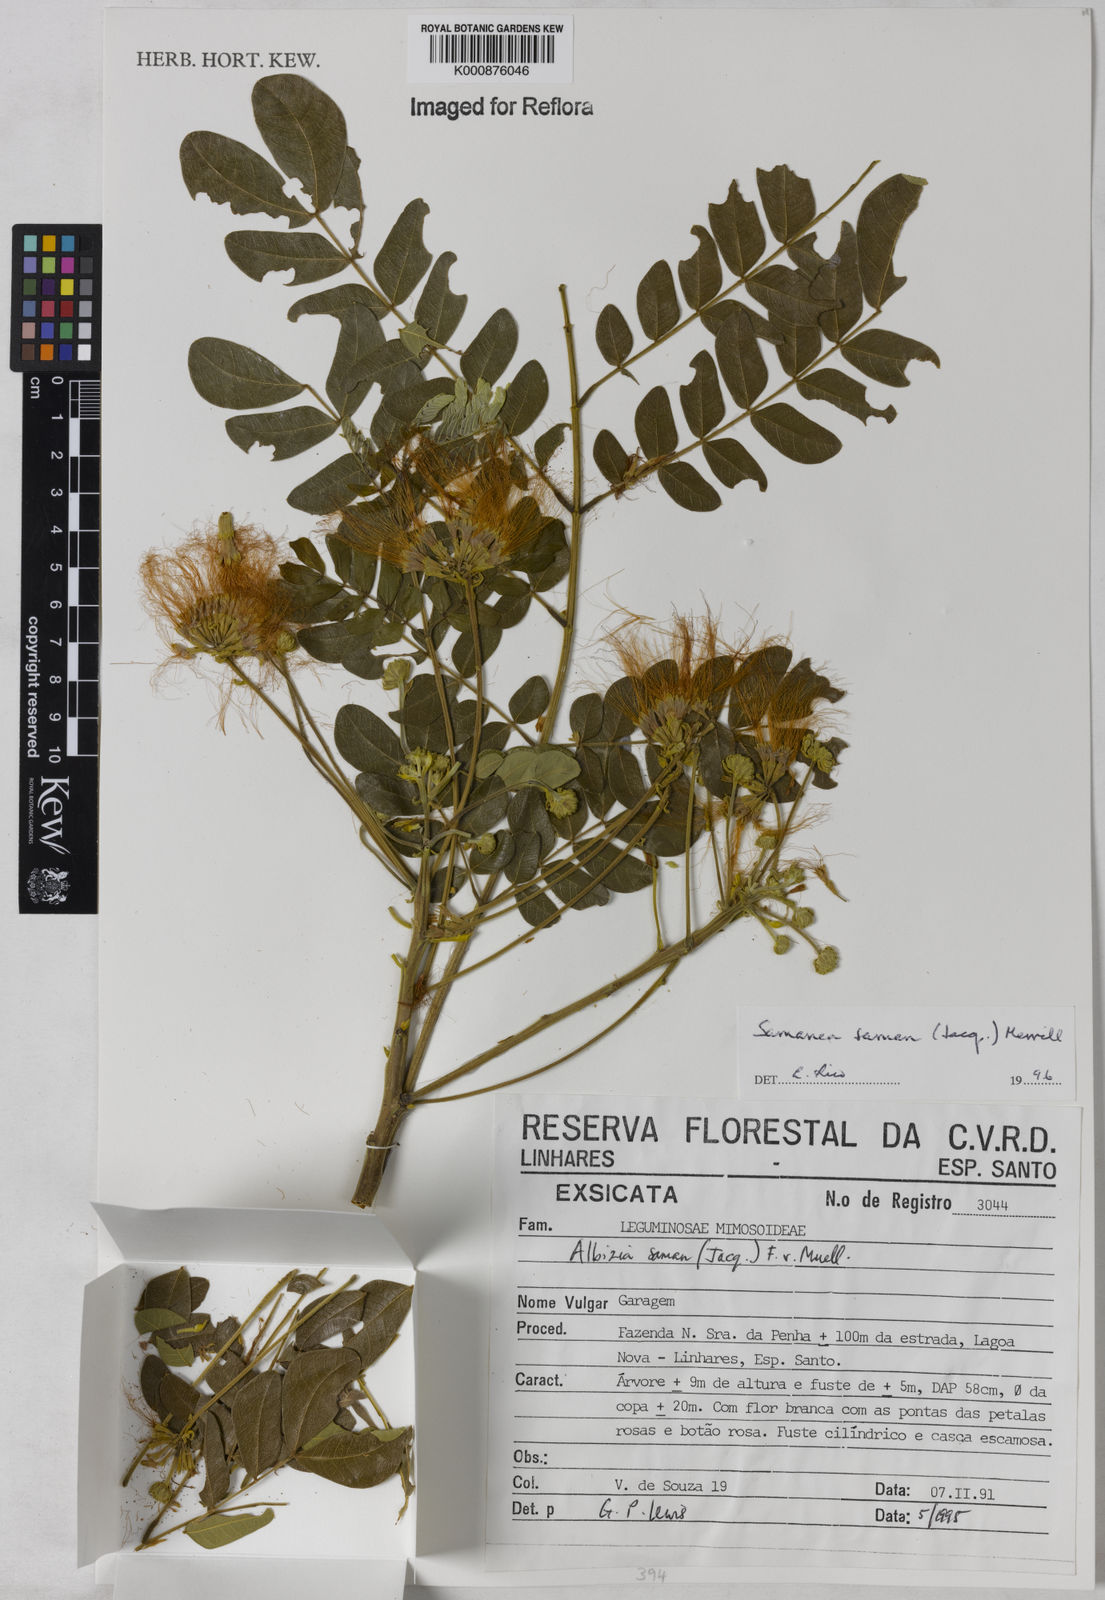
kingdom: Plantae
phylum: Tracheophyta
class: Magnoliopsida
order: Fabales
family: Fabaceae
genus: Samanea
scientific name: Samanea saman
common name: Raintree
